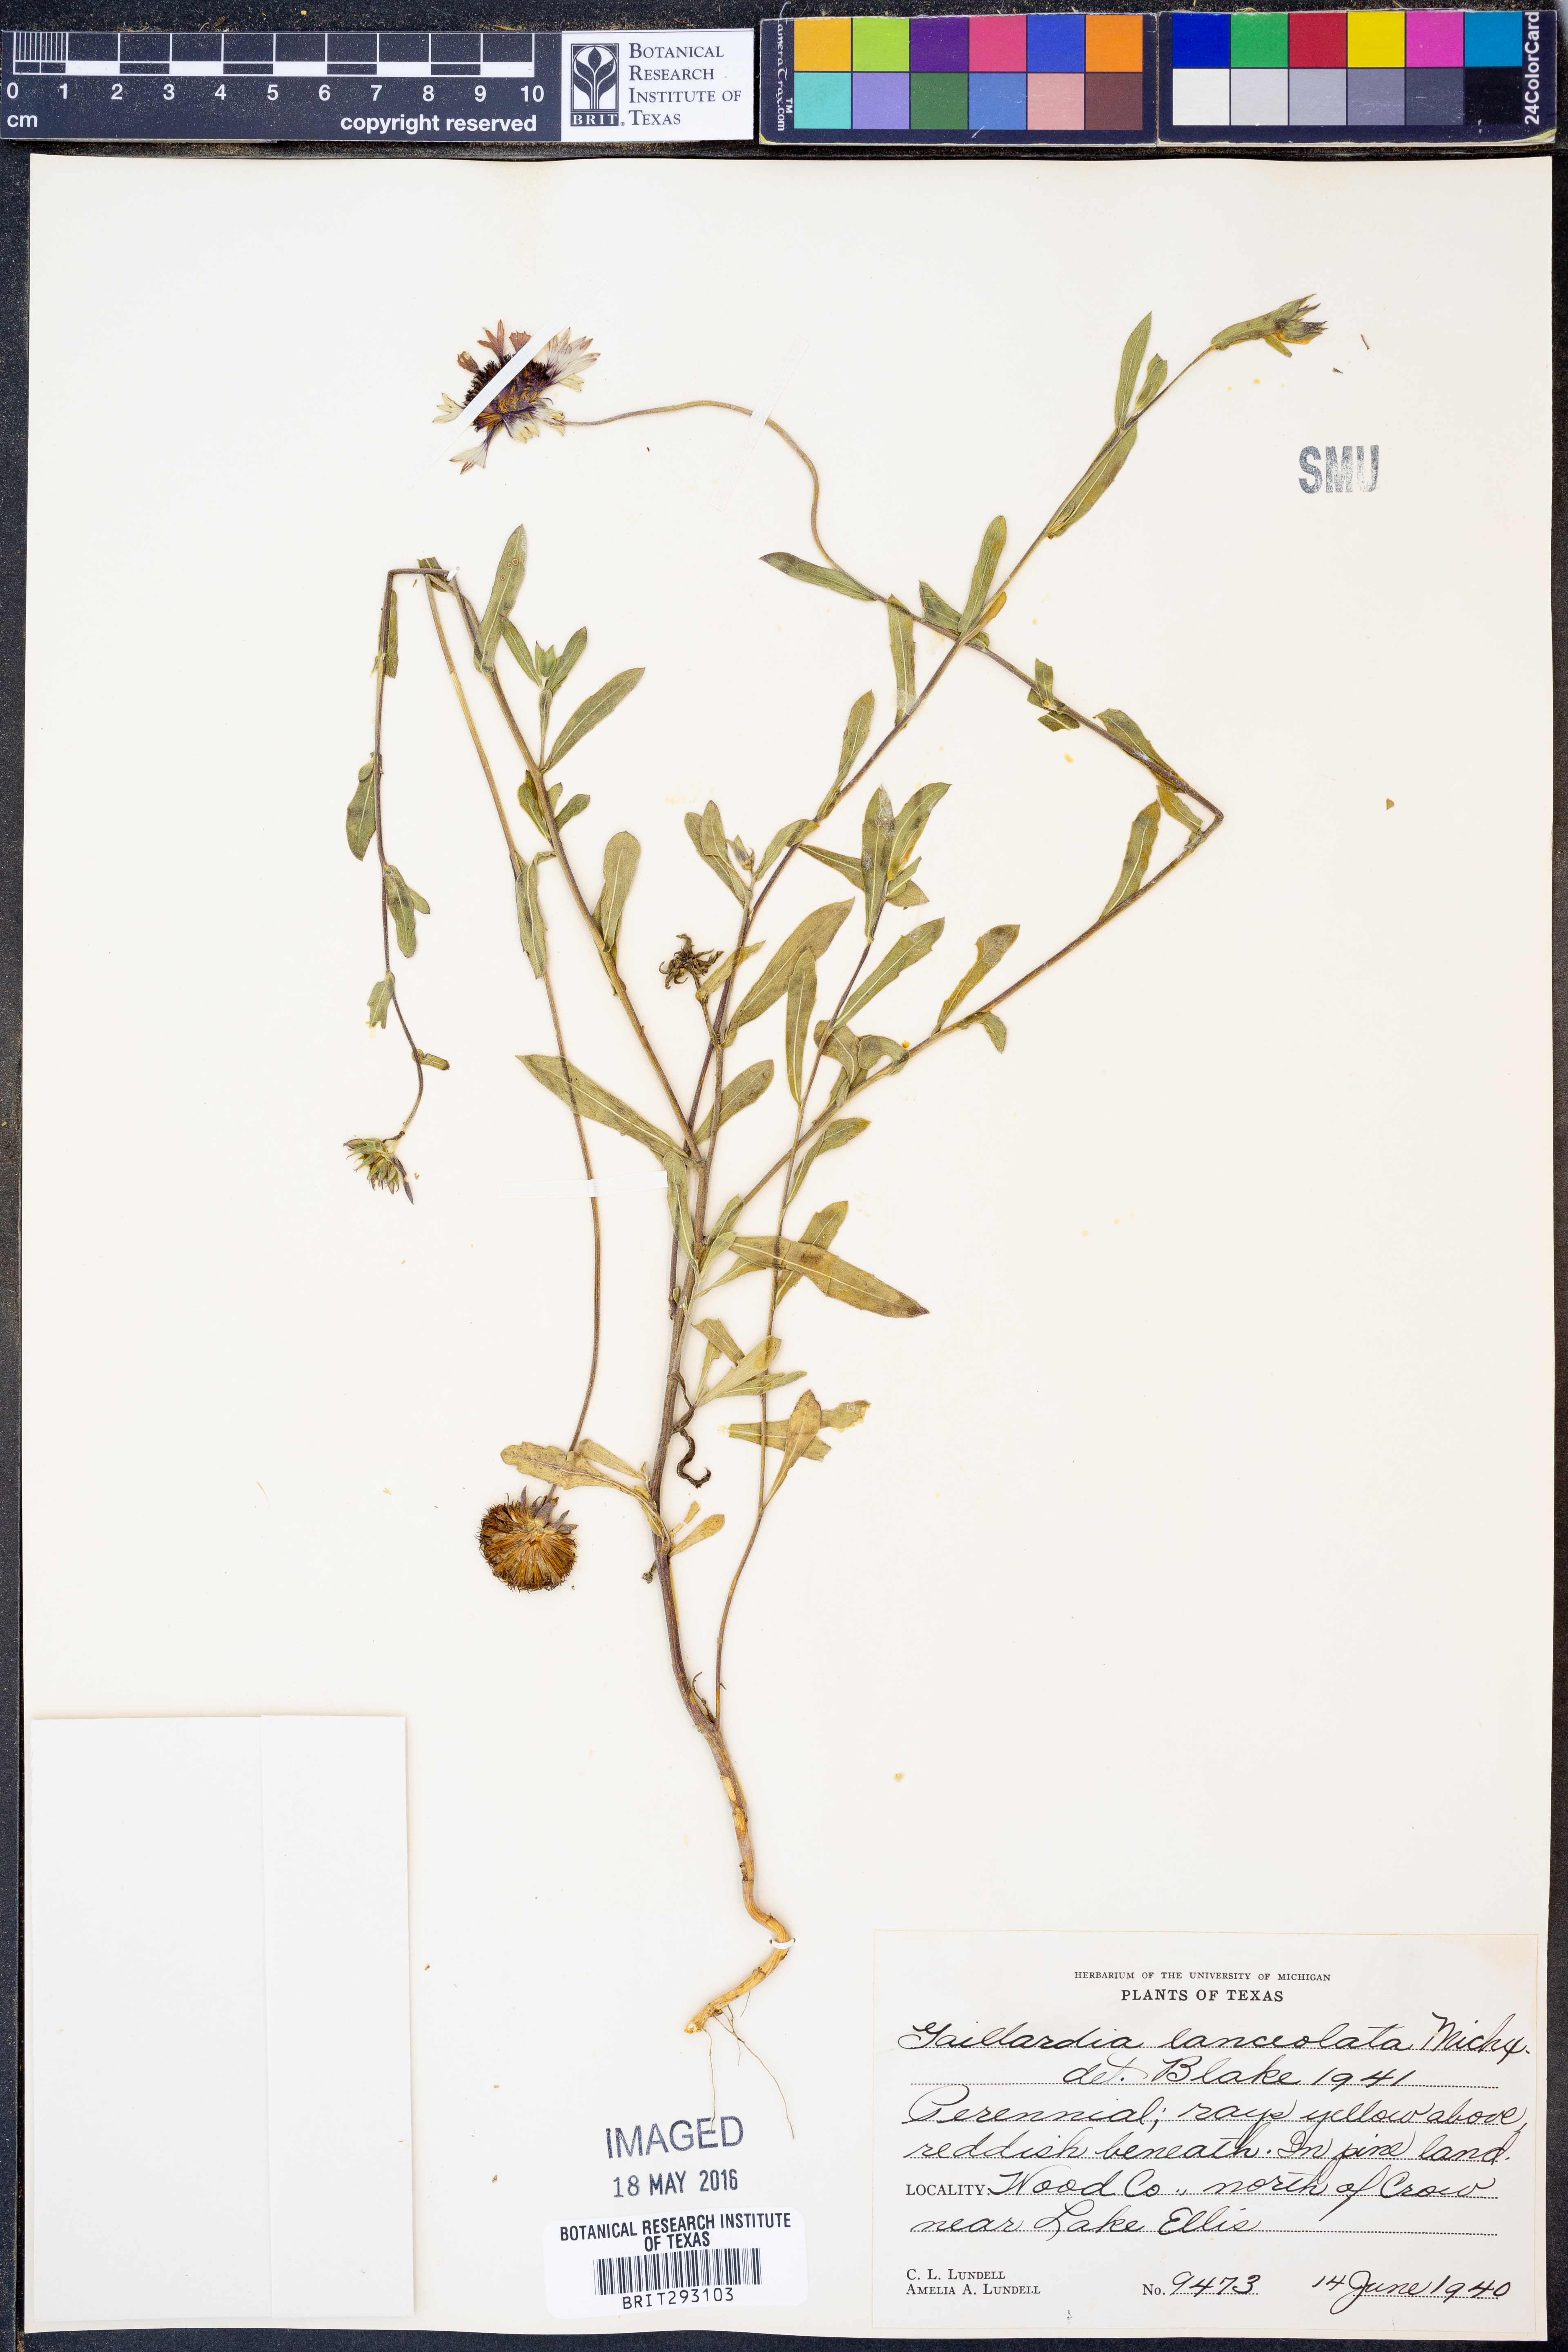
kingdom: Plantae
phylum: Tracheophyta
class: Magnoliopsida
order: Asterales
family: Asteraceae
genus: Gaillardia
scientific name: Gaillardia aestivalis
